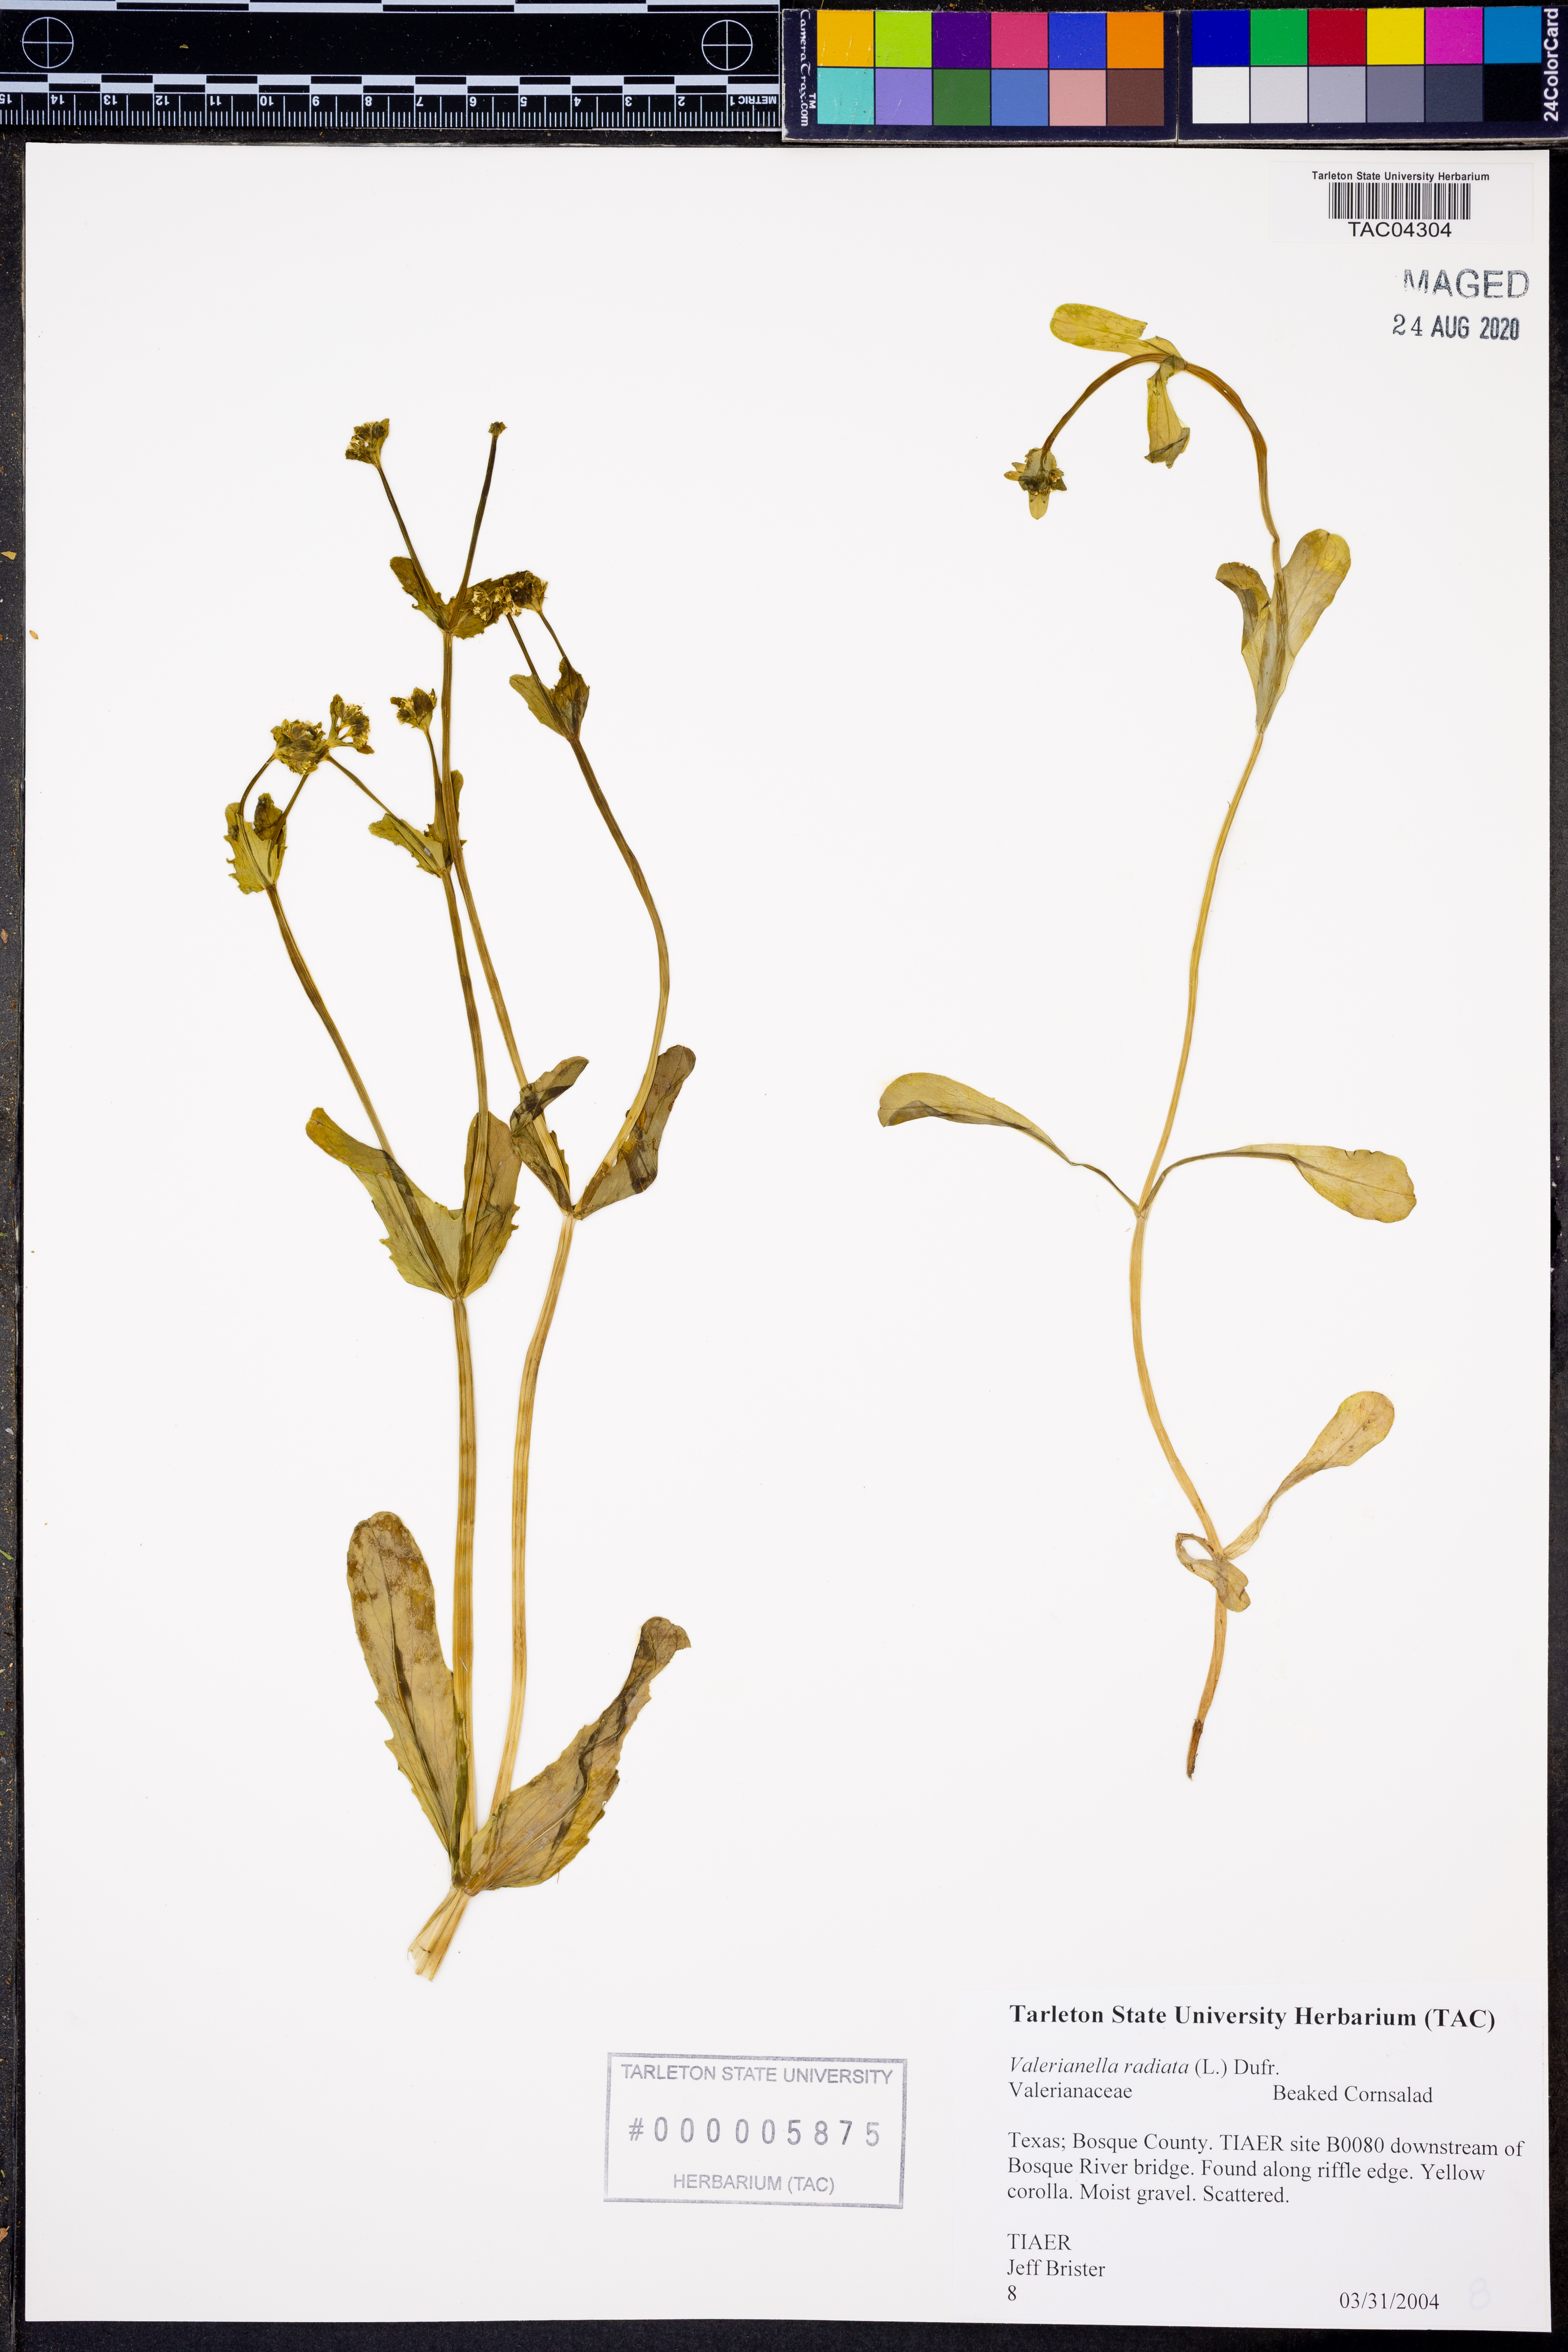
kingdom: Plantae
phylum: Tracheophyta
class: Magnoliopsida
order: Dipsacales
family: Caprifoliaceae
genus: Valerianella
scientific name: Valerianella radiata
